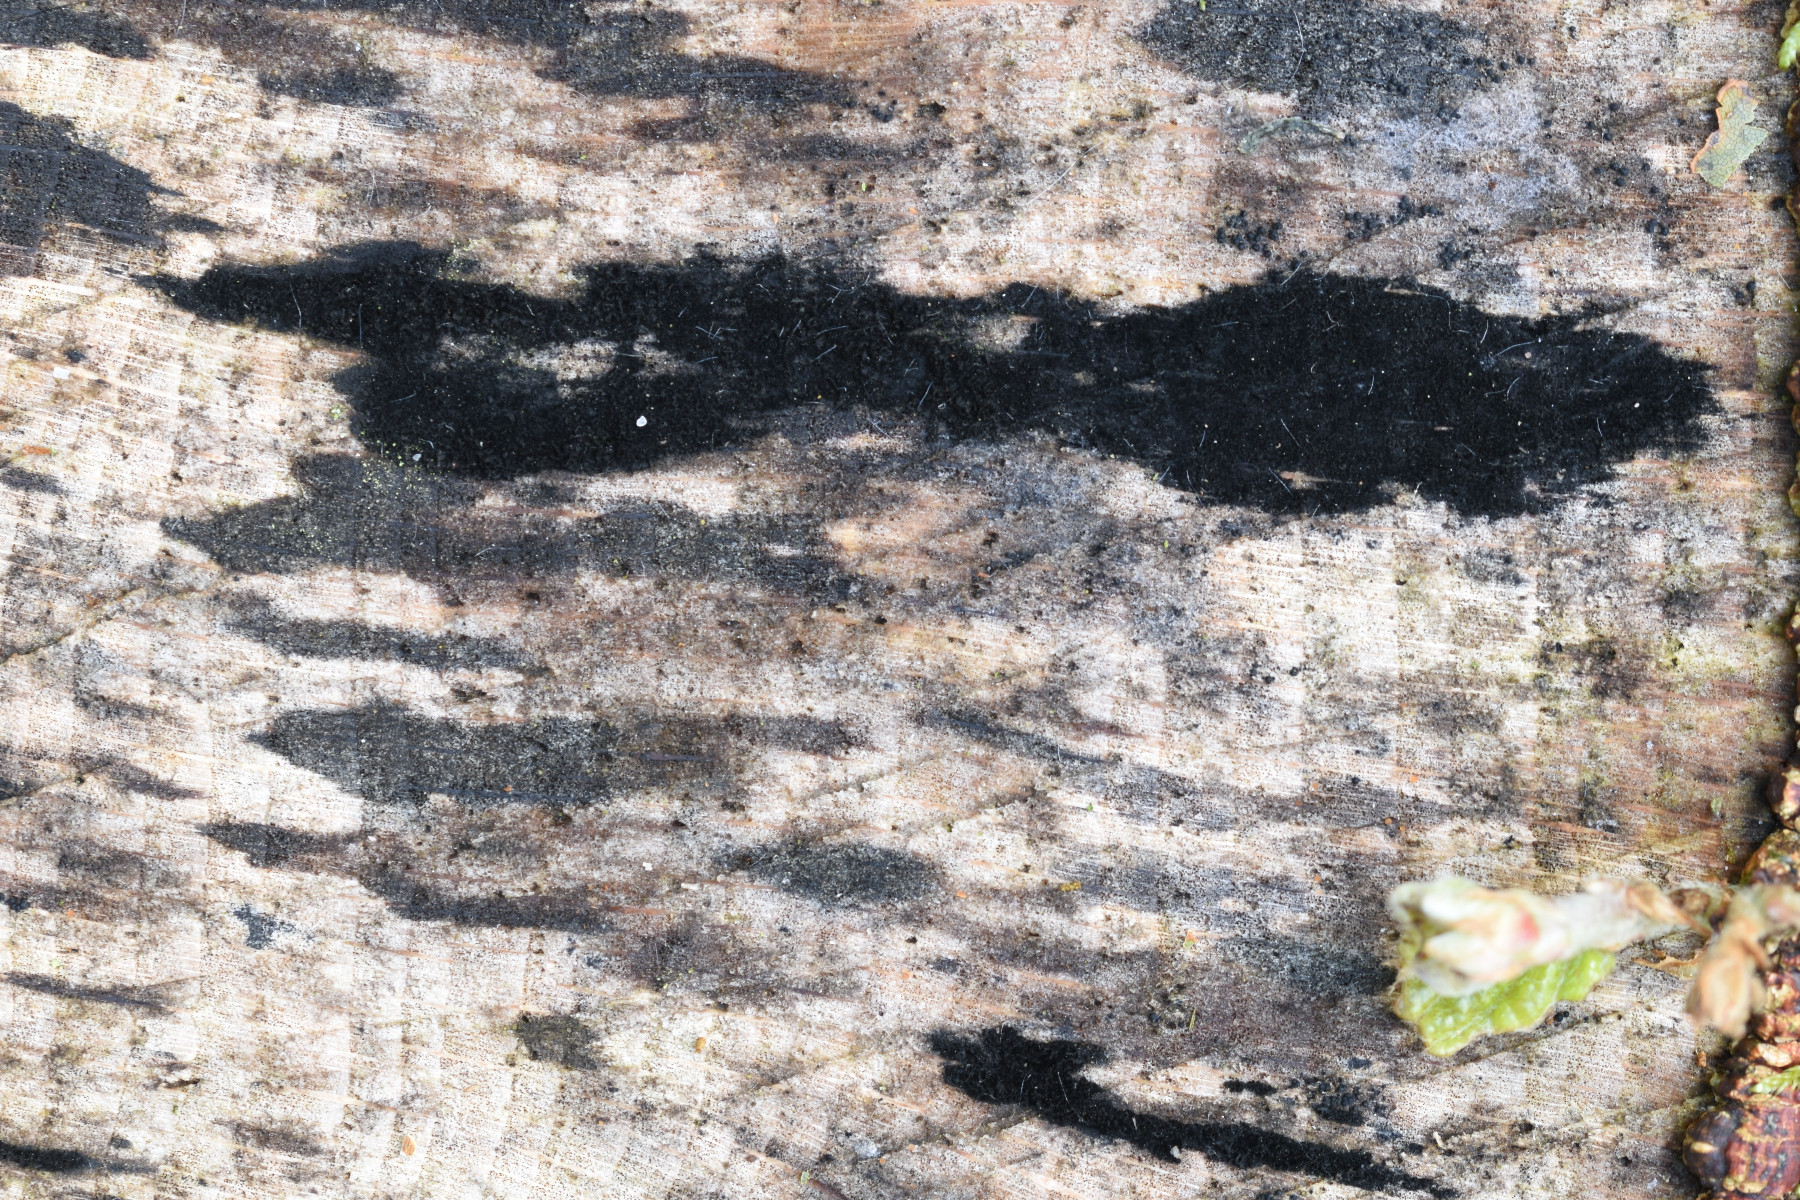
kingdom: Fungi
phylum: Ascomycota
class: Leotiomycetes
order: Helotiales
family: Helotiaceae
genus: Bispora
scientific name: Bispora pallescens
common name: måtte-snitskive
